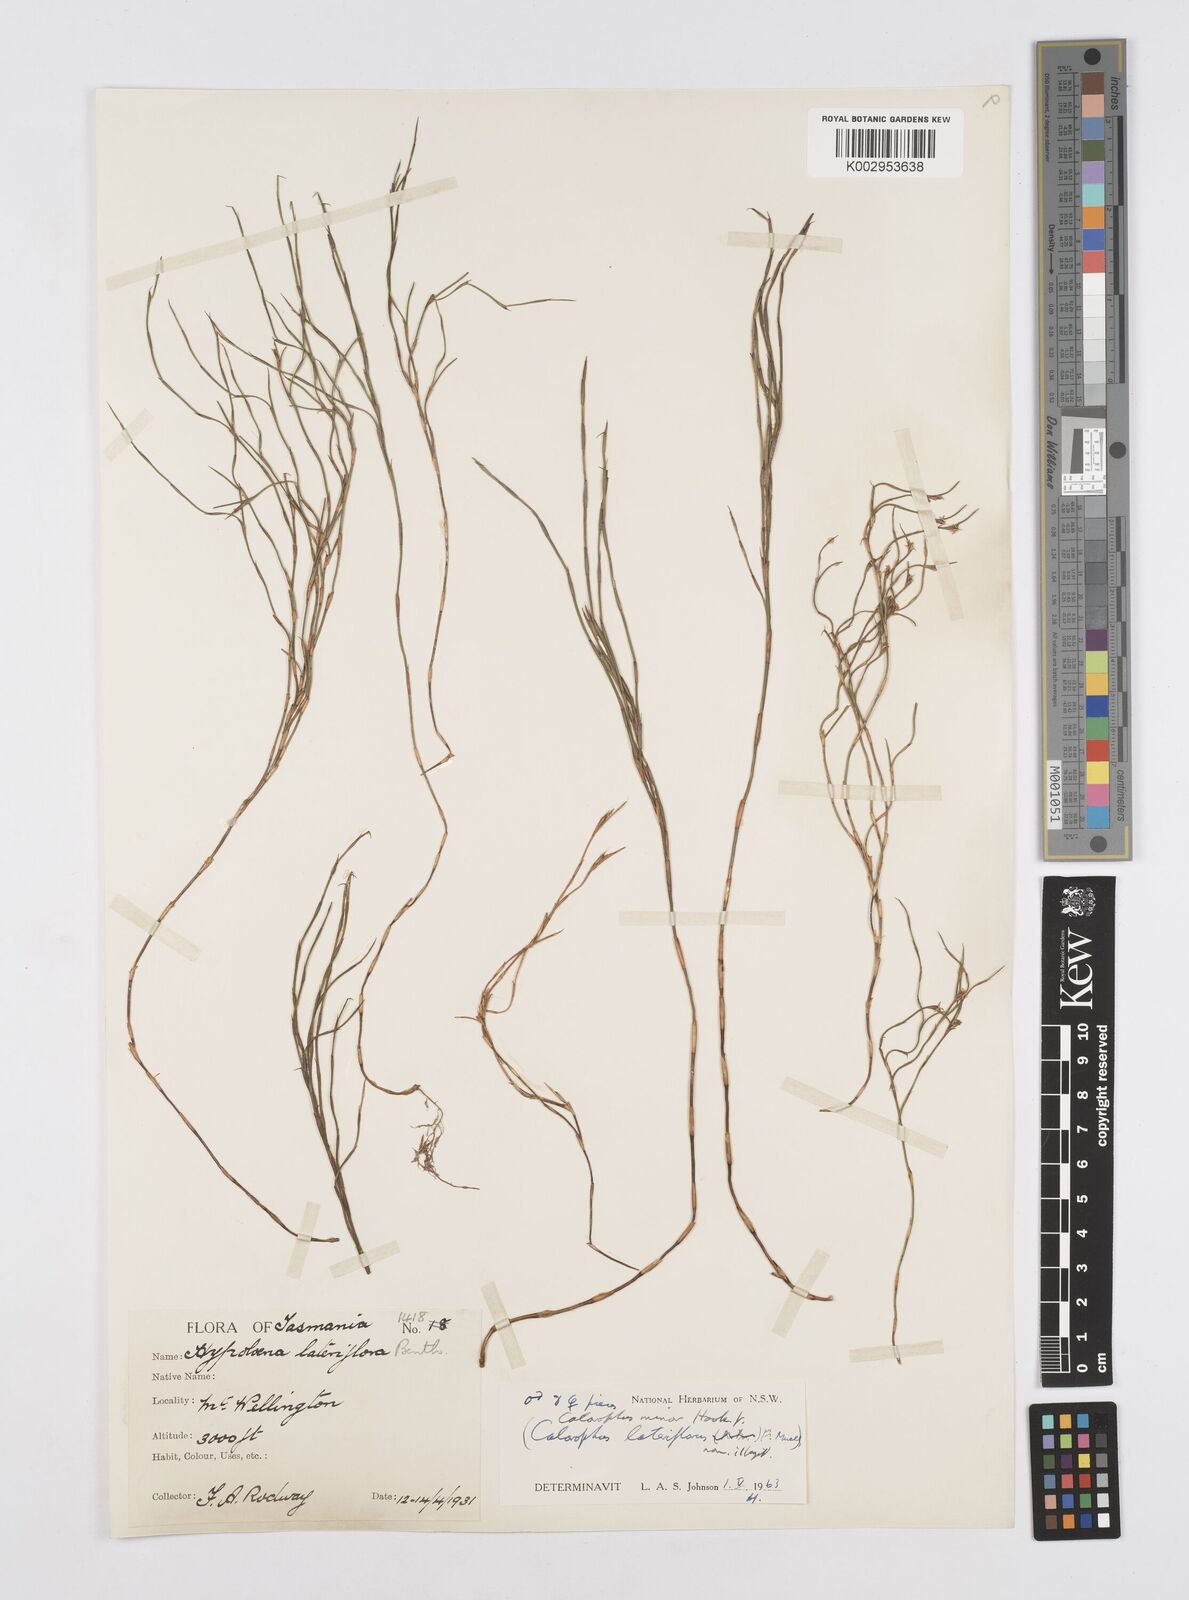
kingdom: Plantae
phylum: Tracheophyta
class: Liliopsida
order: Poales
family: Restionaceae
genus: Empodisma
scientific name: Empodisma minus
